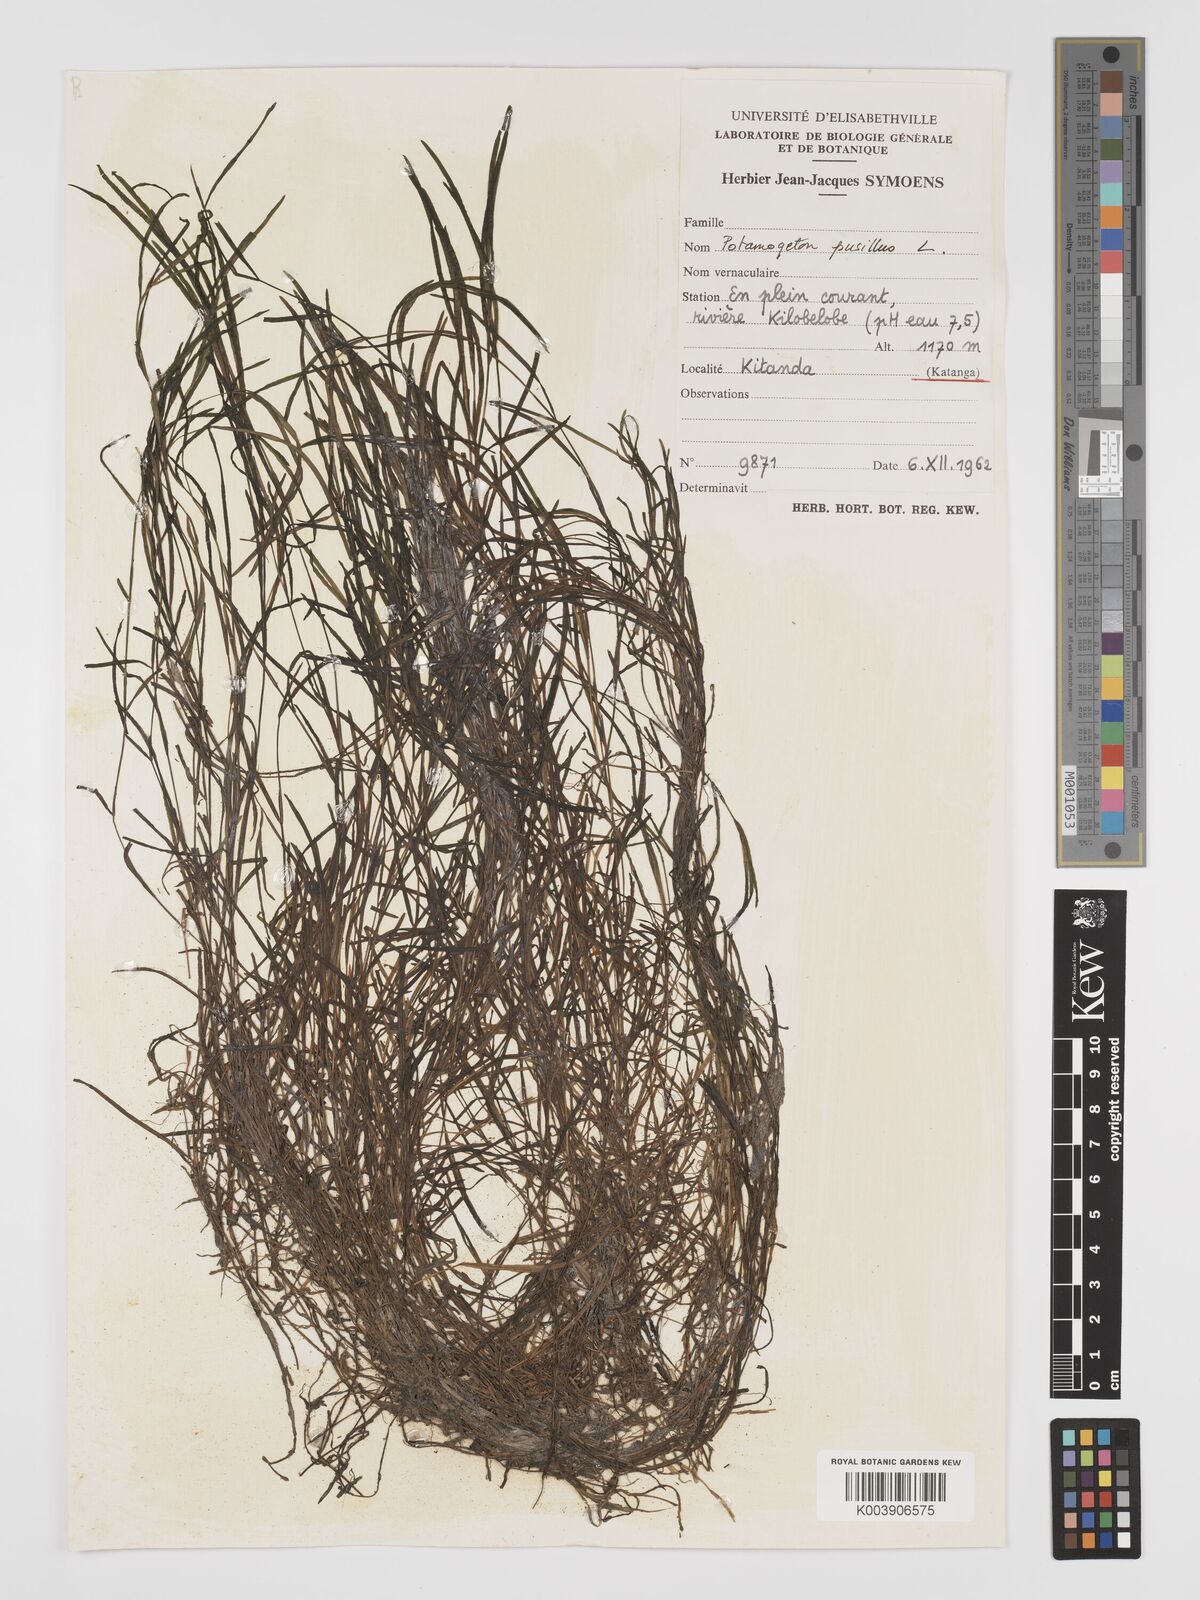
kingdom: Plantae
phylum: Tracheophyta
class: Liliopsida
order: Alismatales
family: Potamogetonaceae
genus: Potamogeton
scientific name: Potamogeton pusillus
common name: Lesser pondweed
